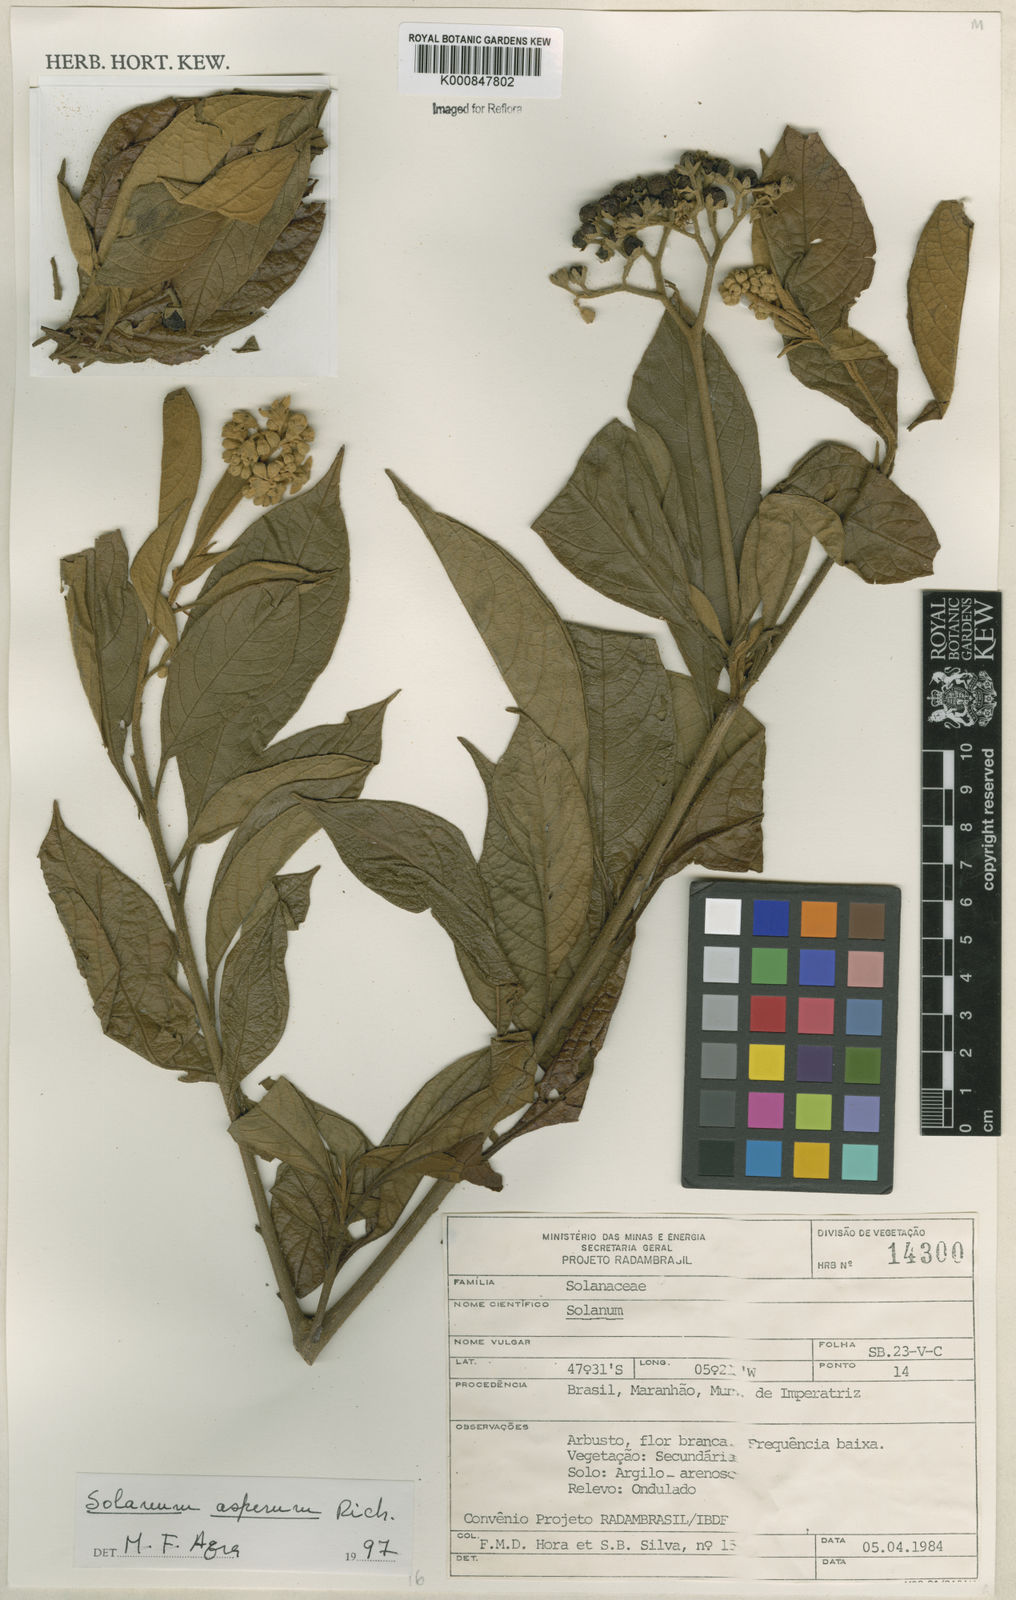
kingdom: Plantae
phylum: Tracheophyta
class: Magnoliopsida
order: Solanales
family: Solanaceae
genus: Solanum
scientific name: Solanum asperum
